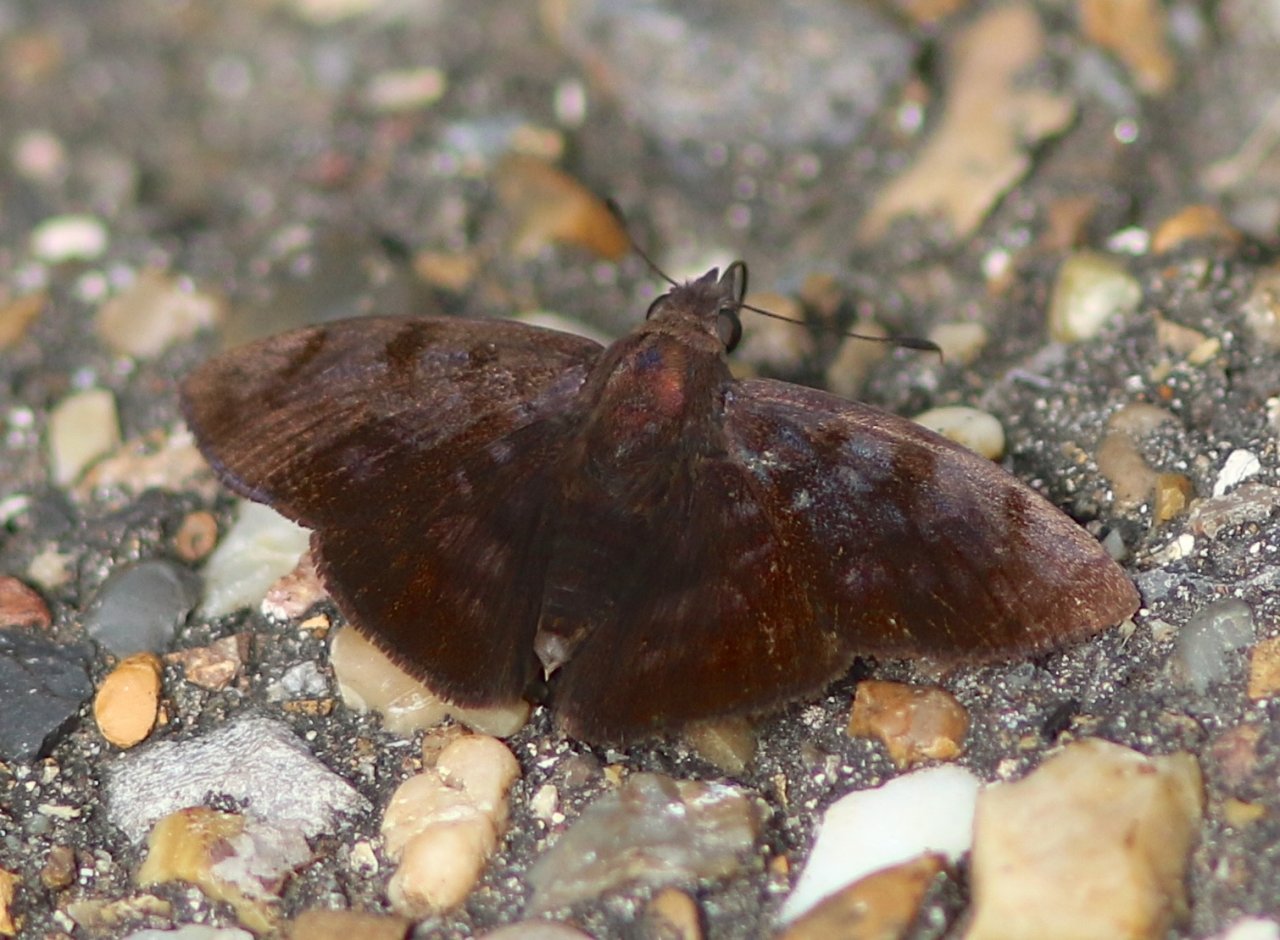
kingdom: Animalia
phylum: Arthropoda
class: Insecta
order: Lepidoptera
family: Hesperiidae
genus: Pellicia
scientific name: Pellicia costimacula
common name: Glazed Pellicia
